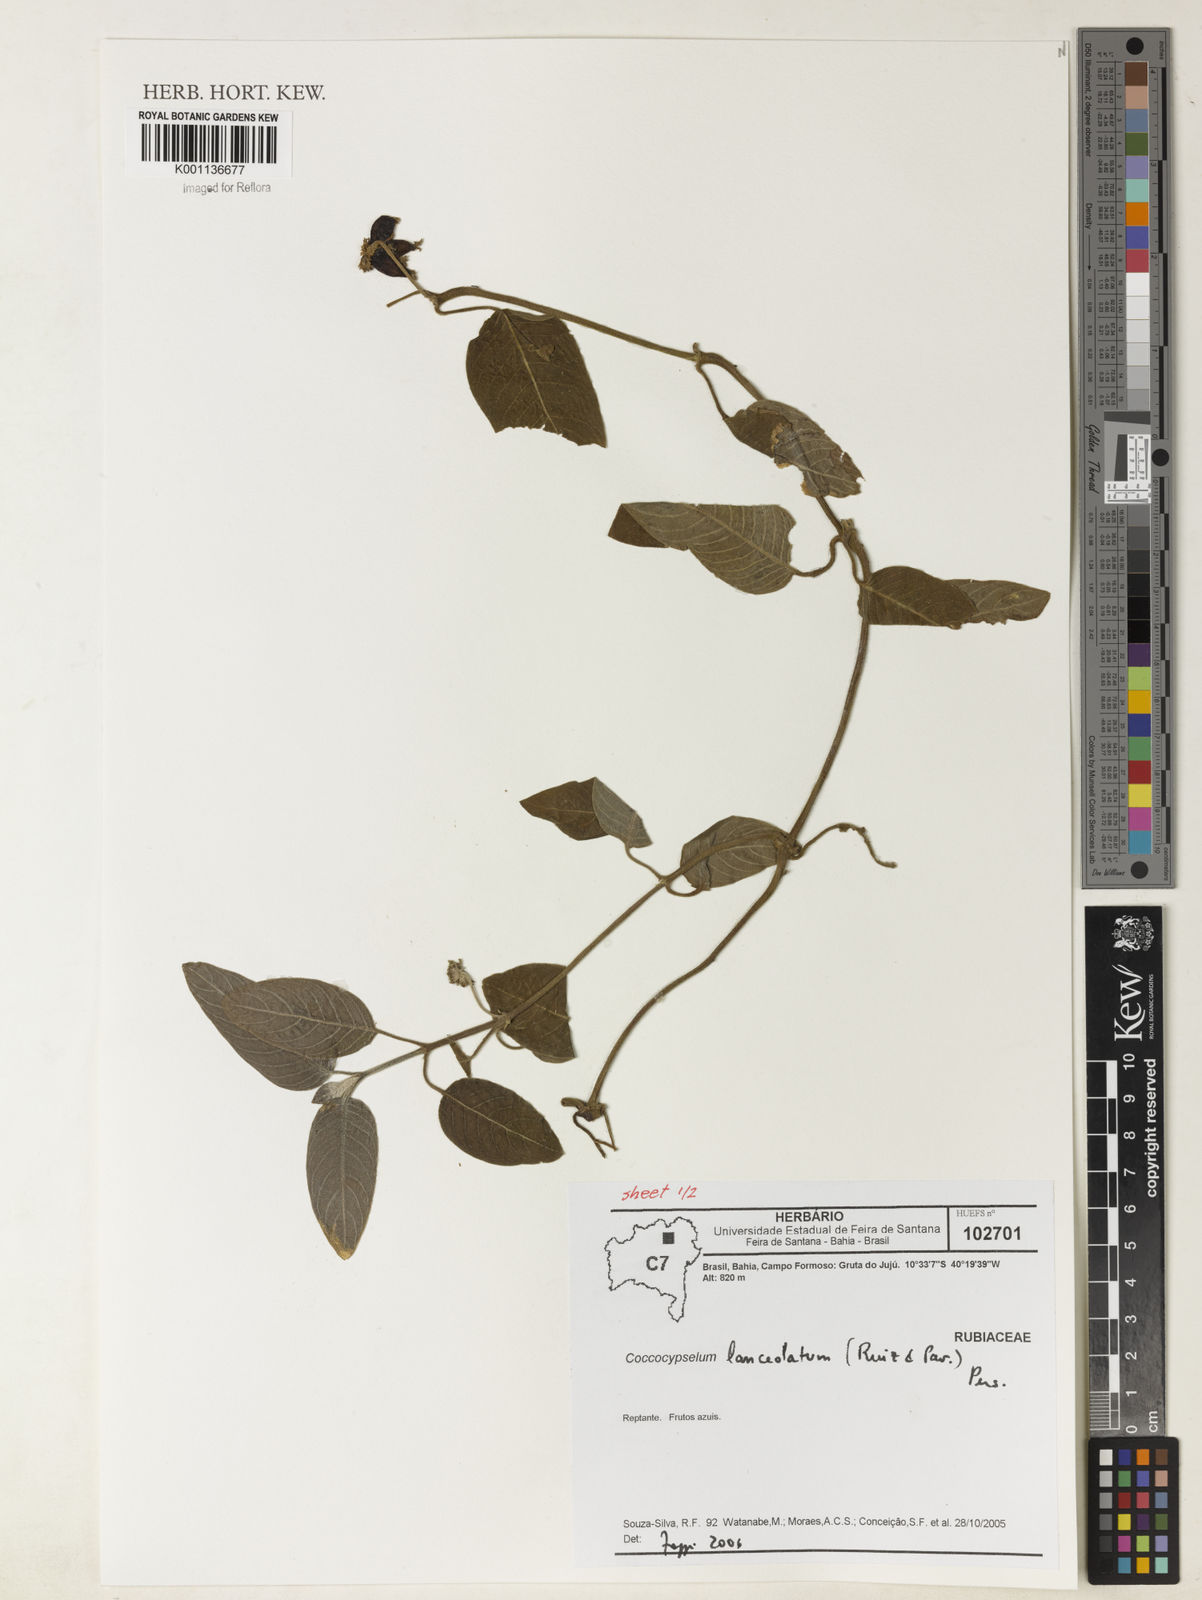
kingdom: Plantae
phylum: Tracheophyta
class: Magnoliopsida
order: Gentianales
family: Rubiaceae
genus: Coccocypselum
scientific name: Coccocypselum lanceolatum
